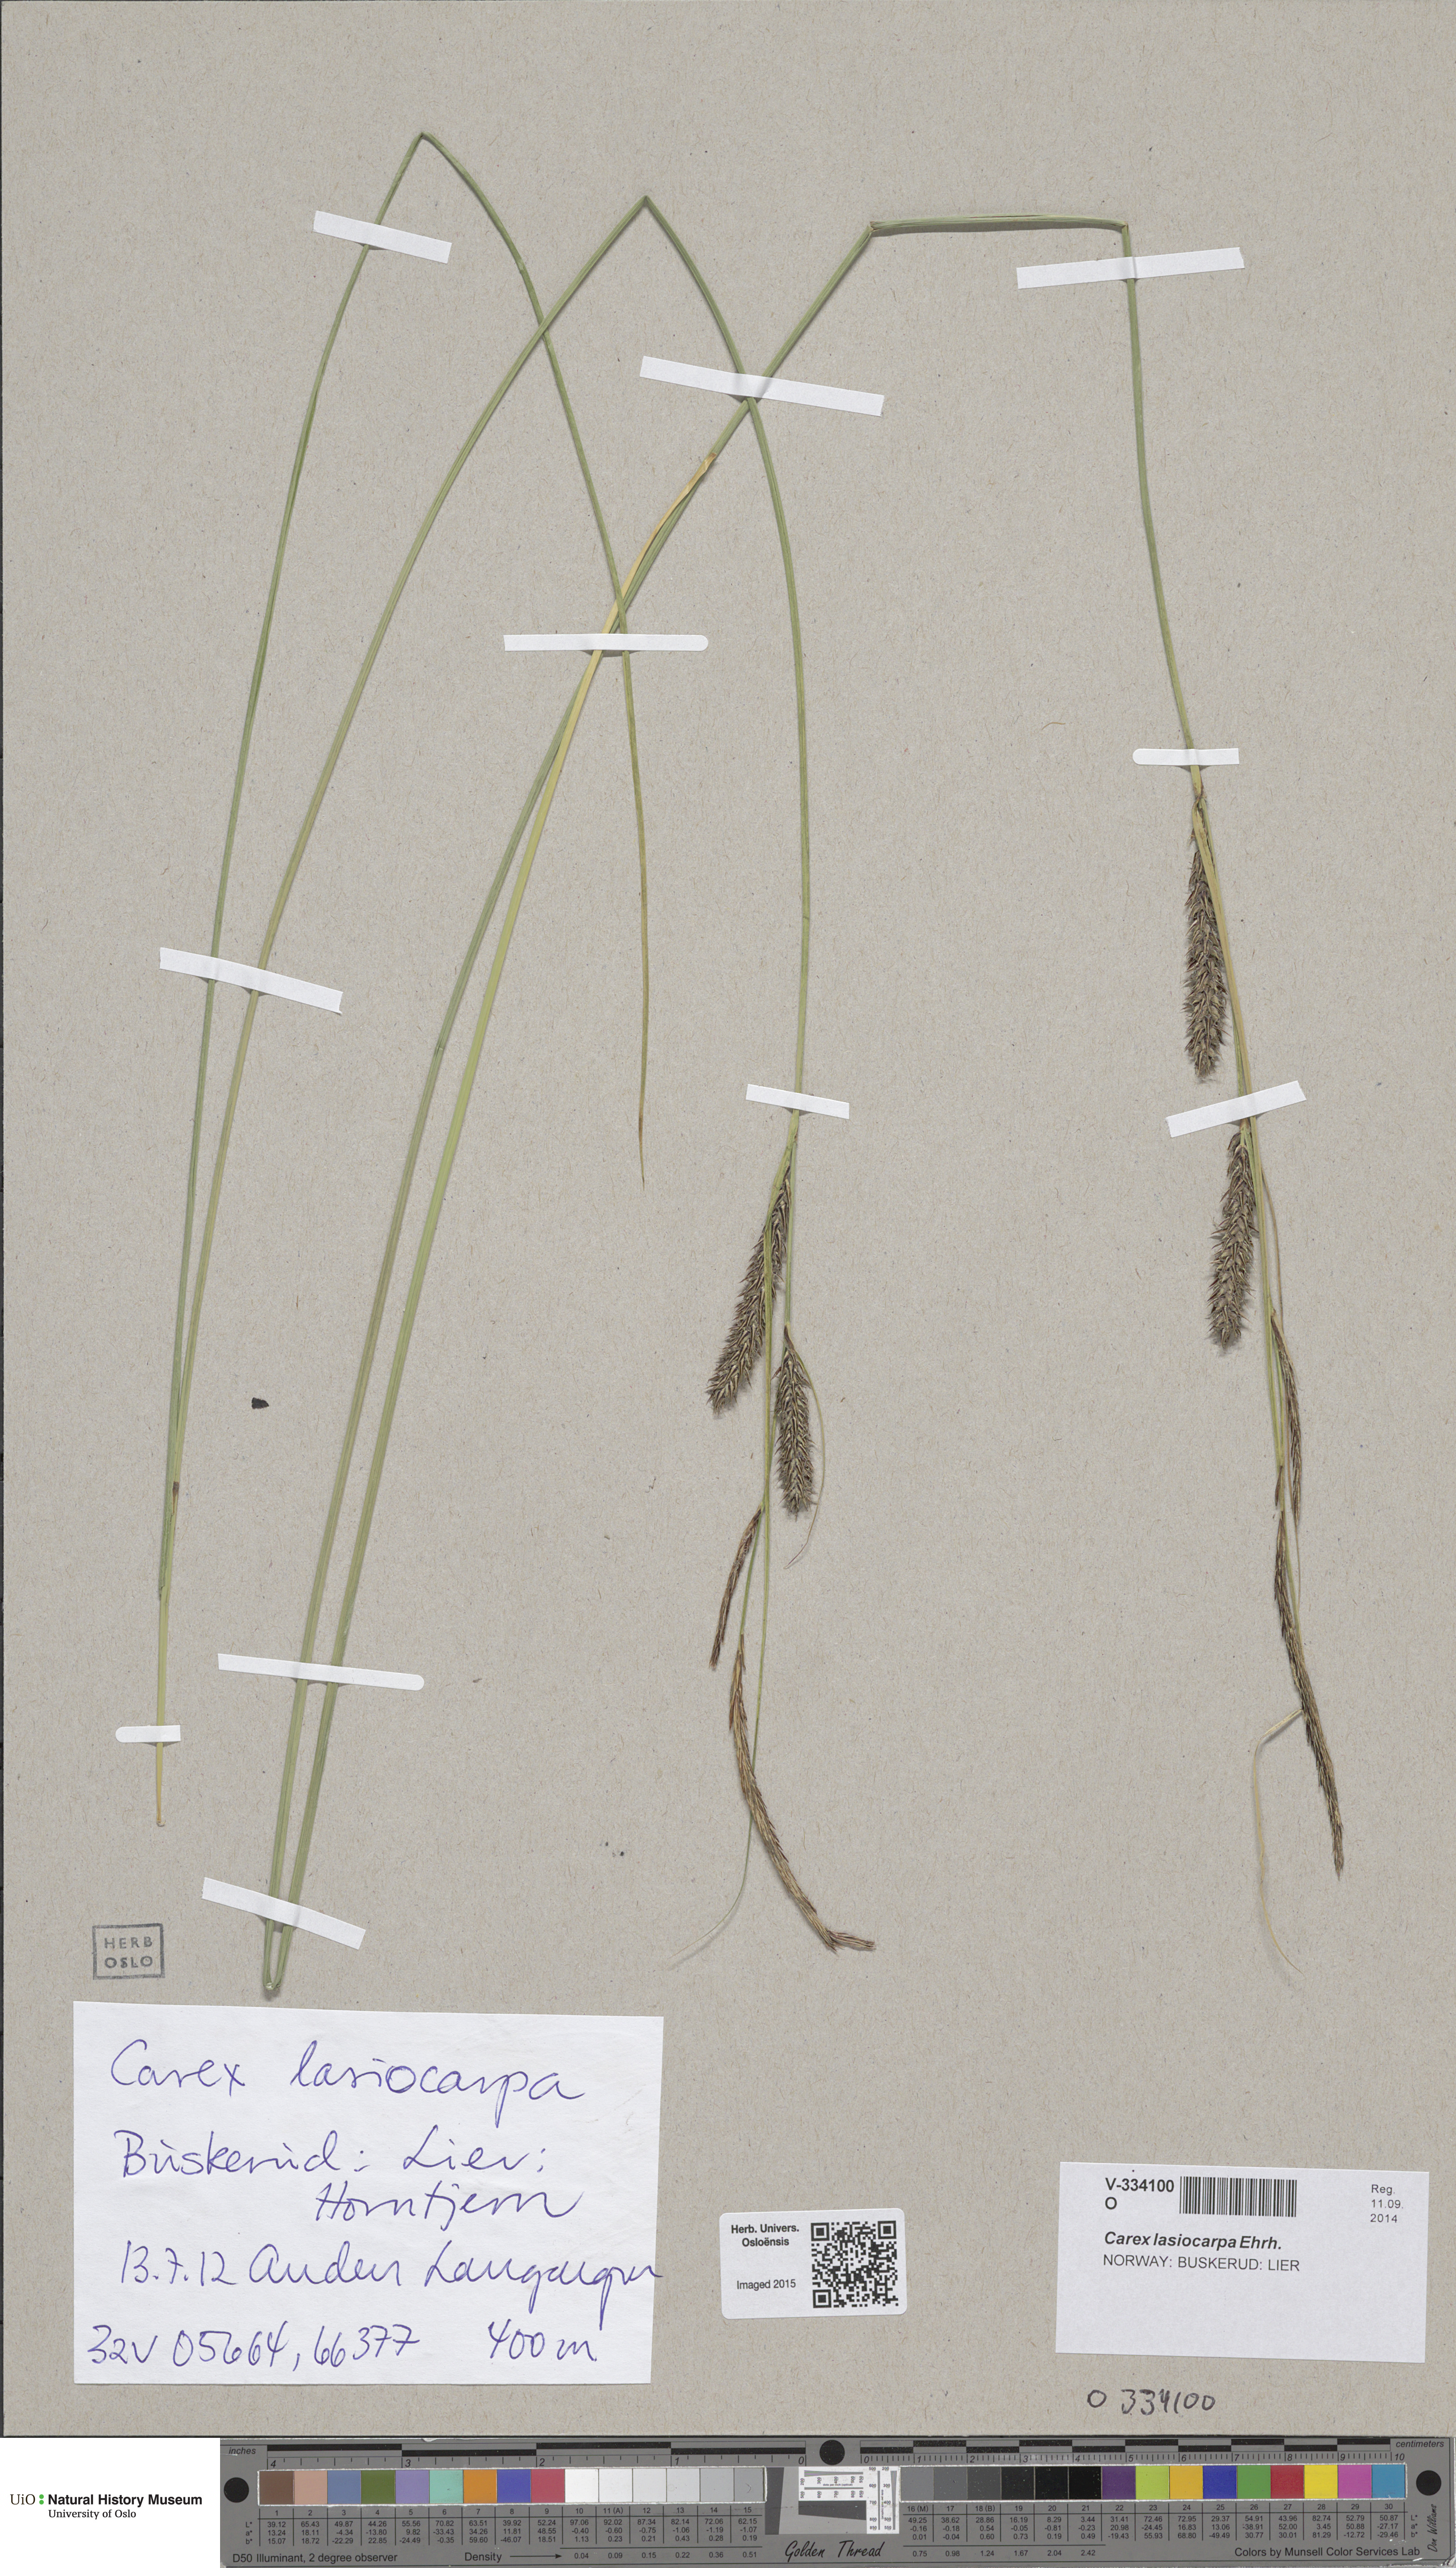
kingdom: Plantae
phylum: Tracheophyta
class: Liliopsida
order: Poales
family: Cyperaceae
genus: Carex
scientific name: Carex lasiocarpa
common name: Slender sedge
